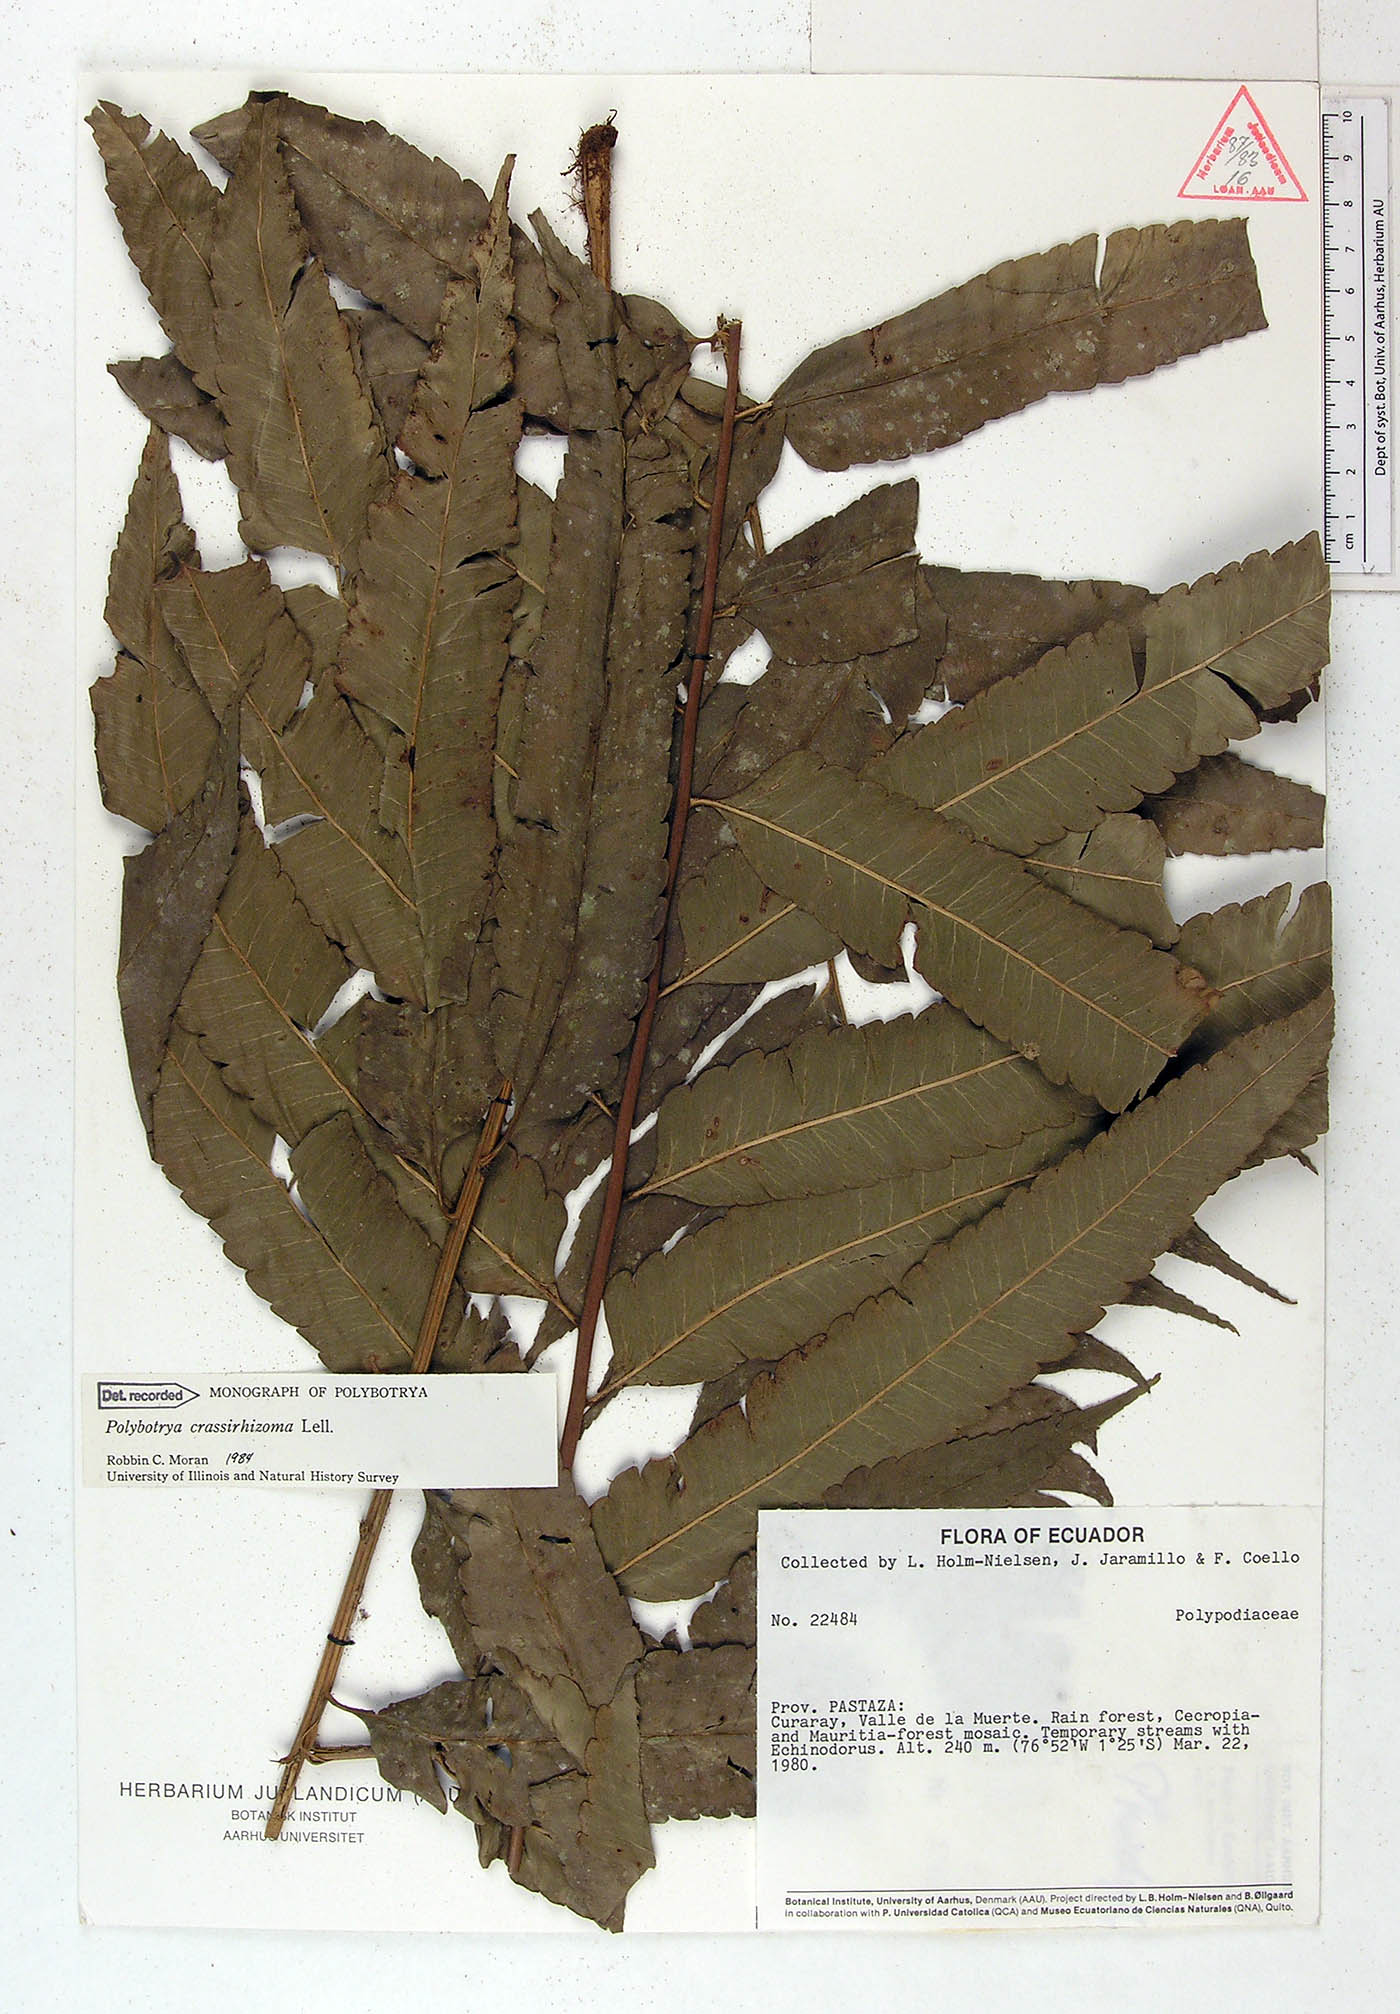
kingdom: Plantae
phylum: Tracheophyta
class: Polypodiopsida
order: Polypodiales
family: Dryopteridaceae
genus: Polybotrya
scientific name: Polybotrya crassirhizoma
